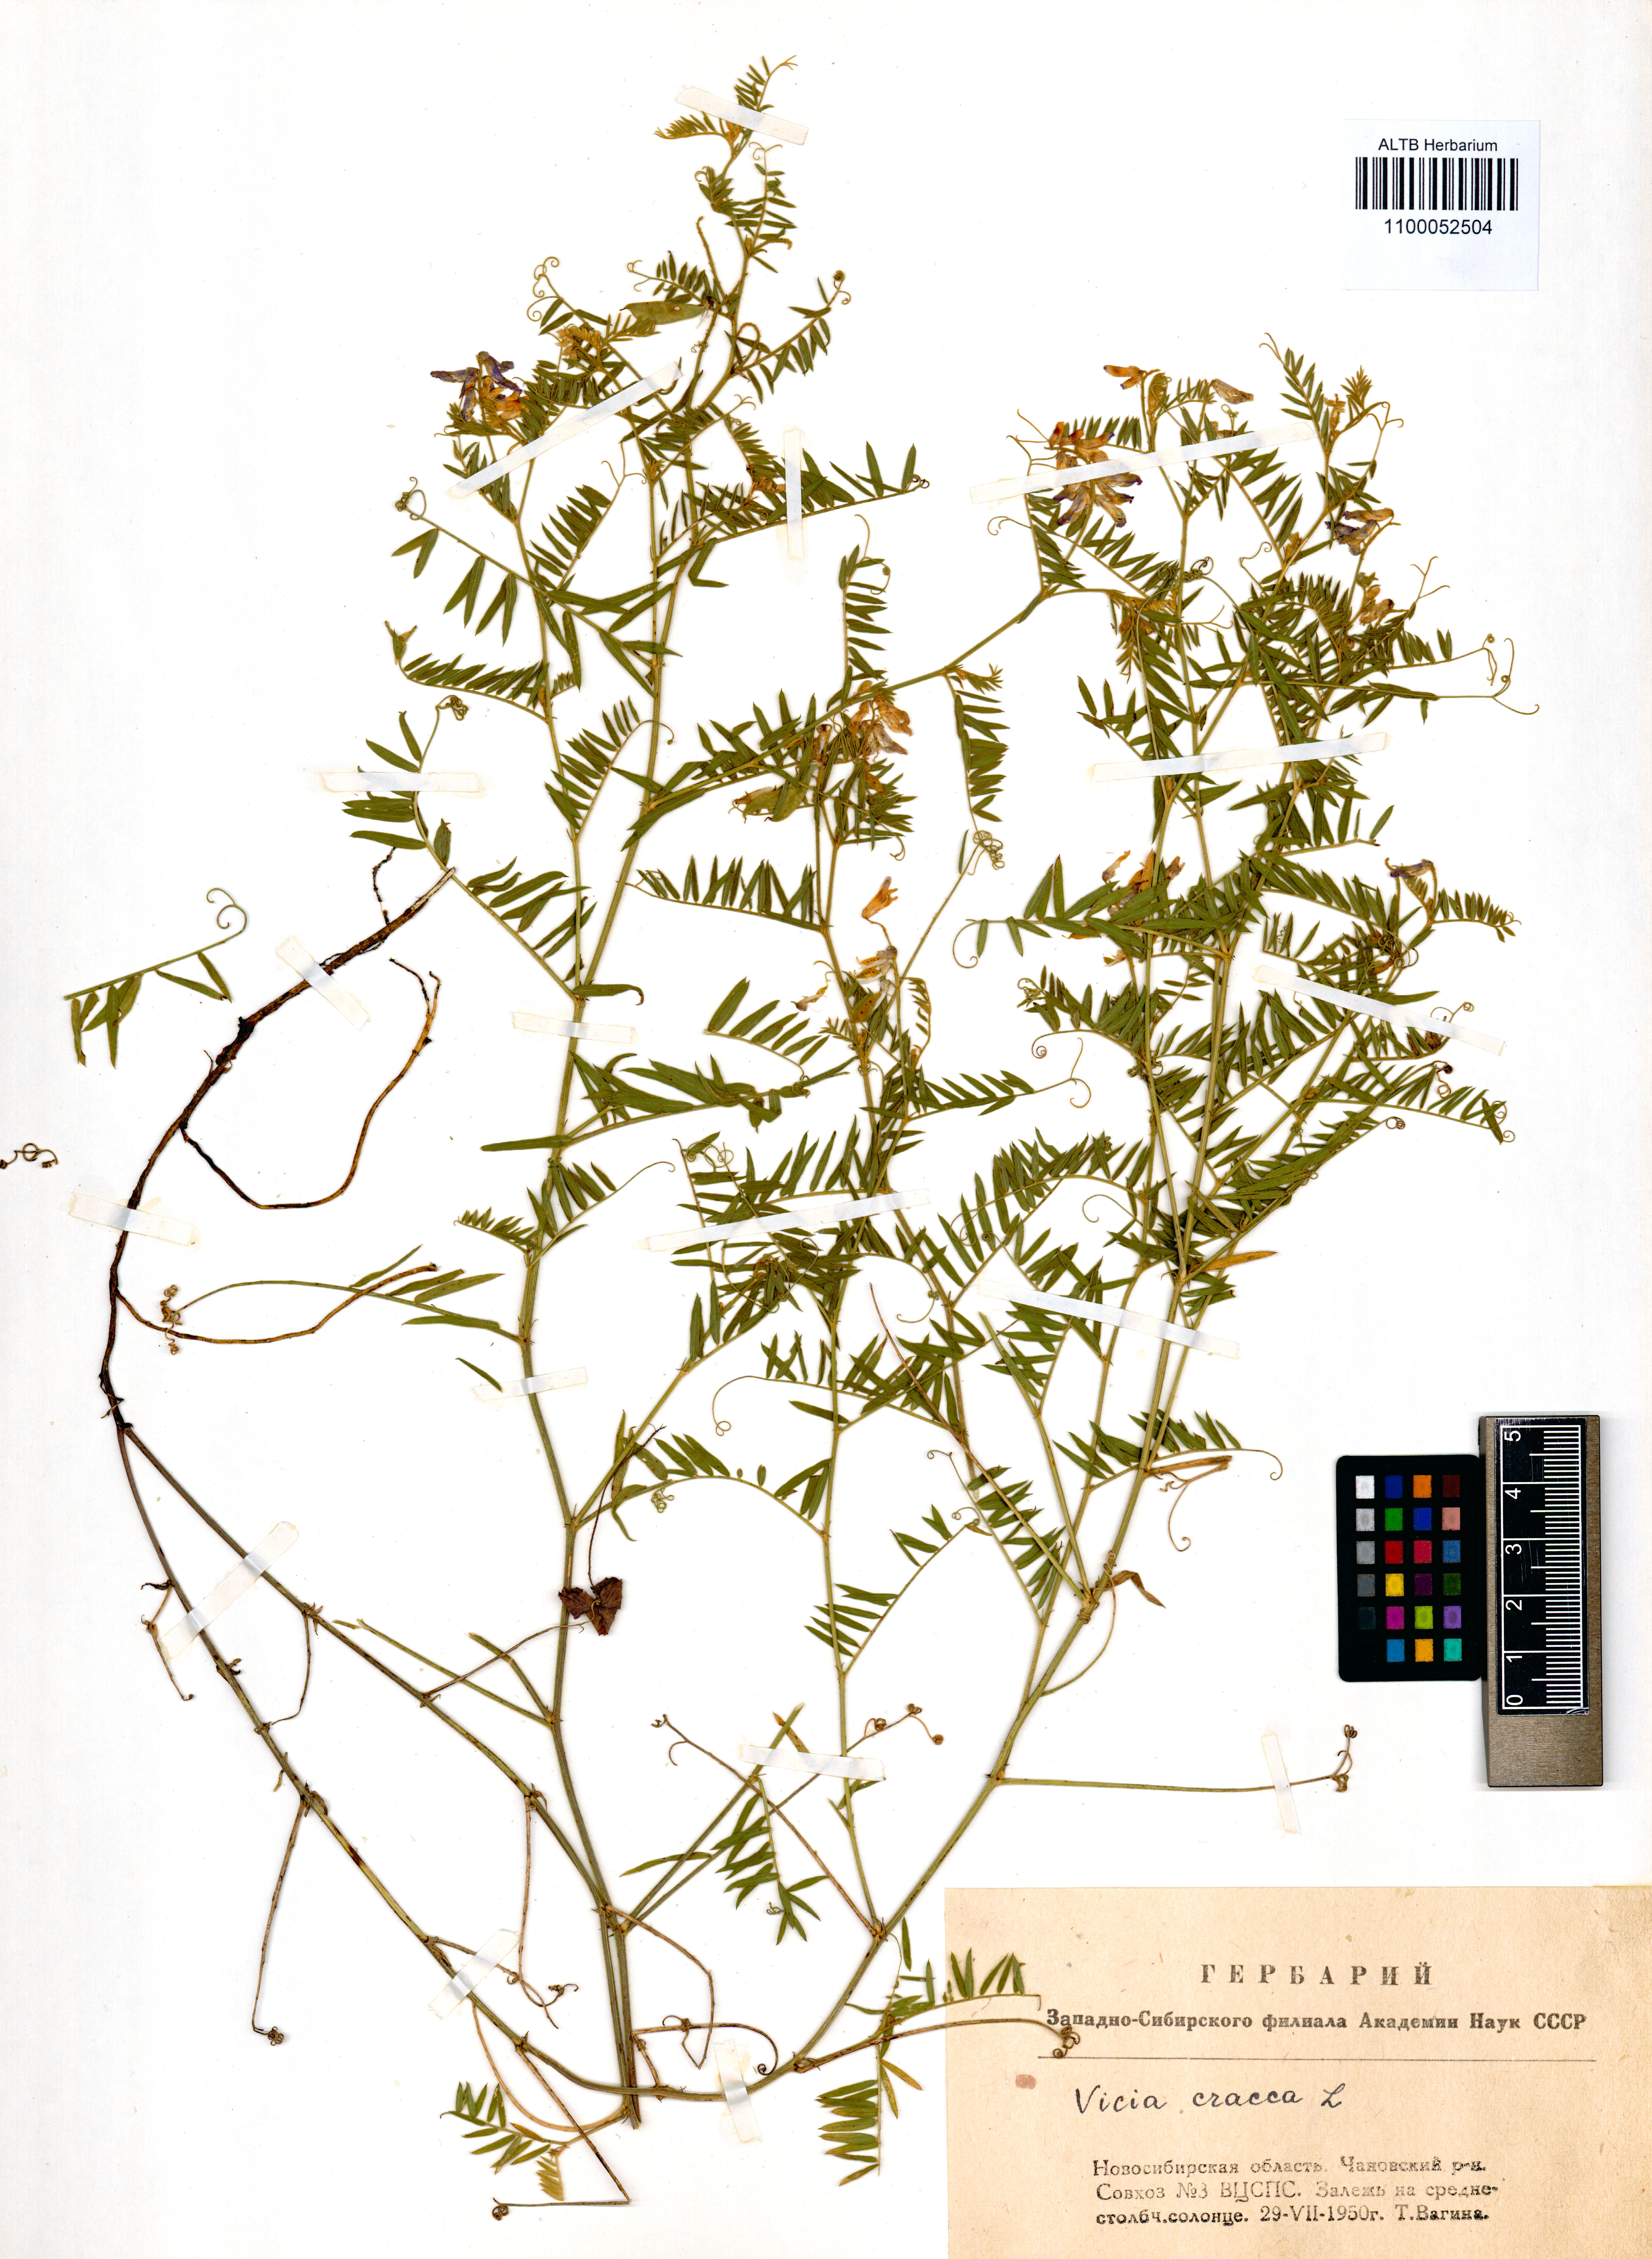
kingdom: Plantae
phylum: Tracheophyta
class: Magnoliopsida
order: Fabales
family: Fabaceae
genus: Vicia
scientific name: Vicia cracca
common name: Bird vetch
